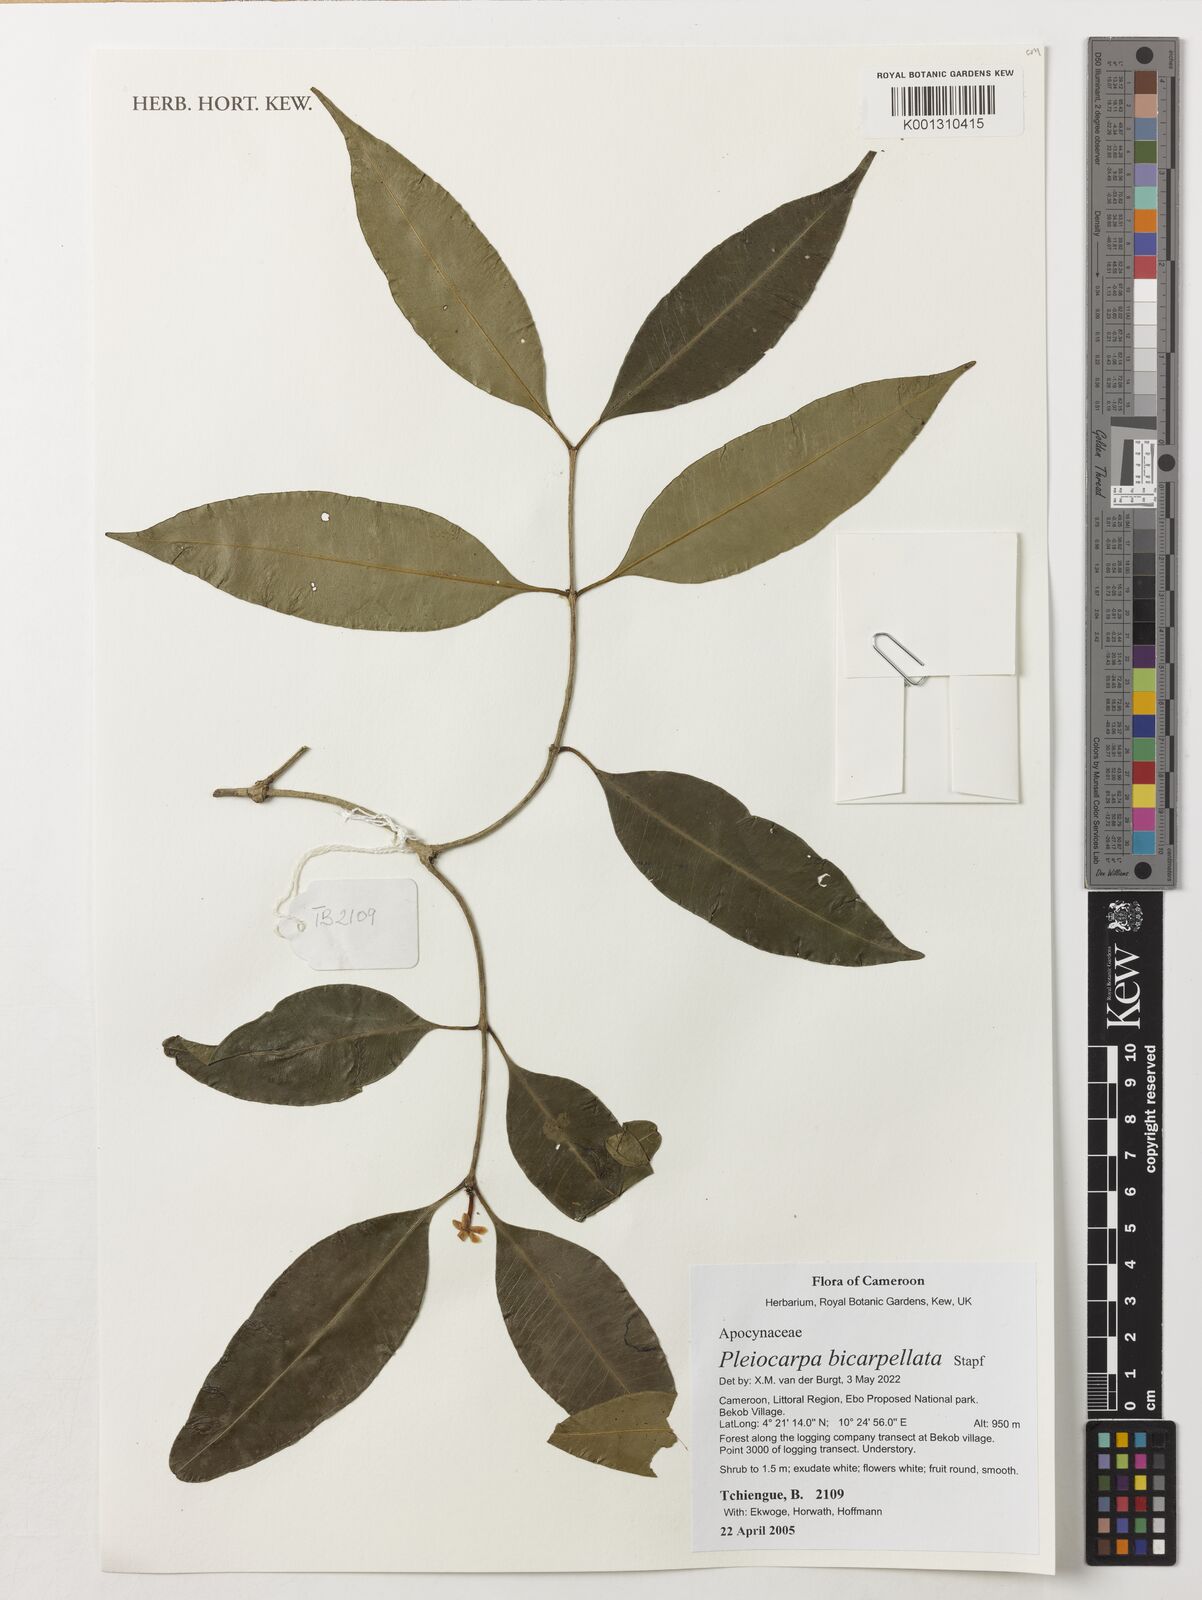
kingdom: Plantae
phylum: Tracheophyta
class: Magnoliopsida
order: Gentianales
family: Apocynaceae
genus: Pleiocarpa
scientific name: Pleiocarpa bicarpellata
